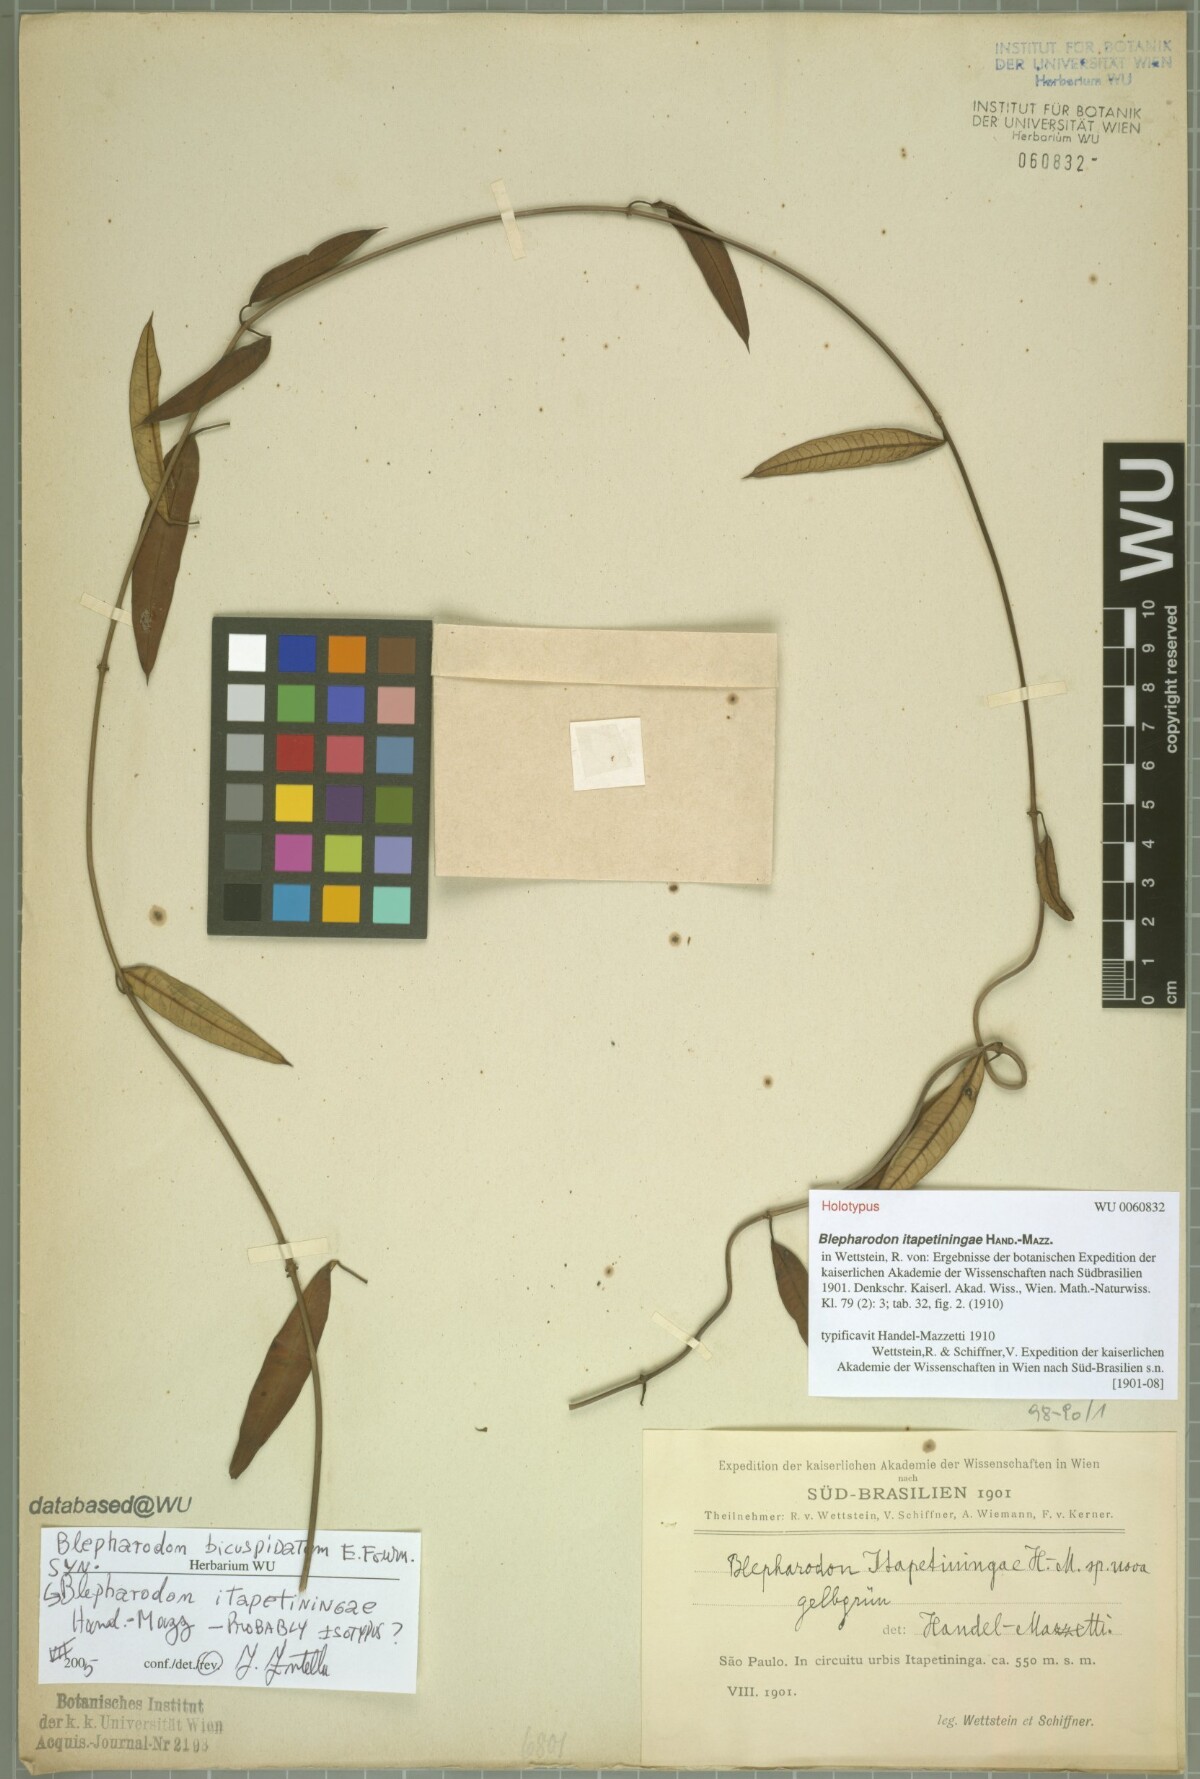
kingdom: Plantae
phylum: Tracheophyta
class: Magnoliopsida
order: Gentianales
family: Apocynaceae
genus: Blepharodon
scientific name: Blepharodon bicuspidatum
